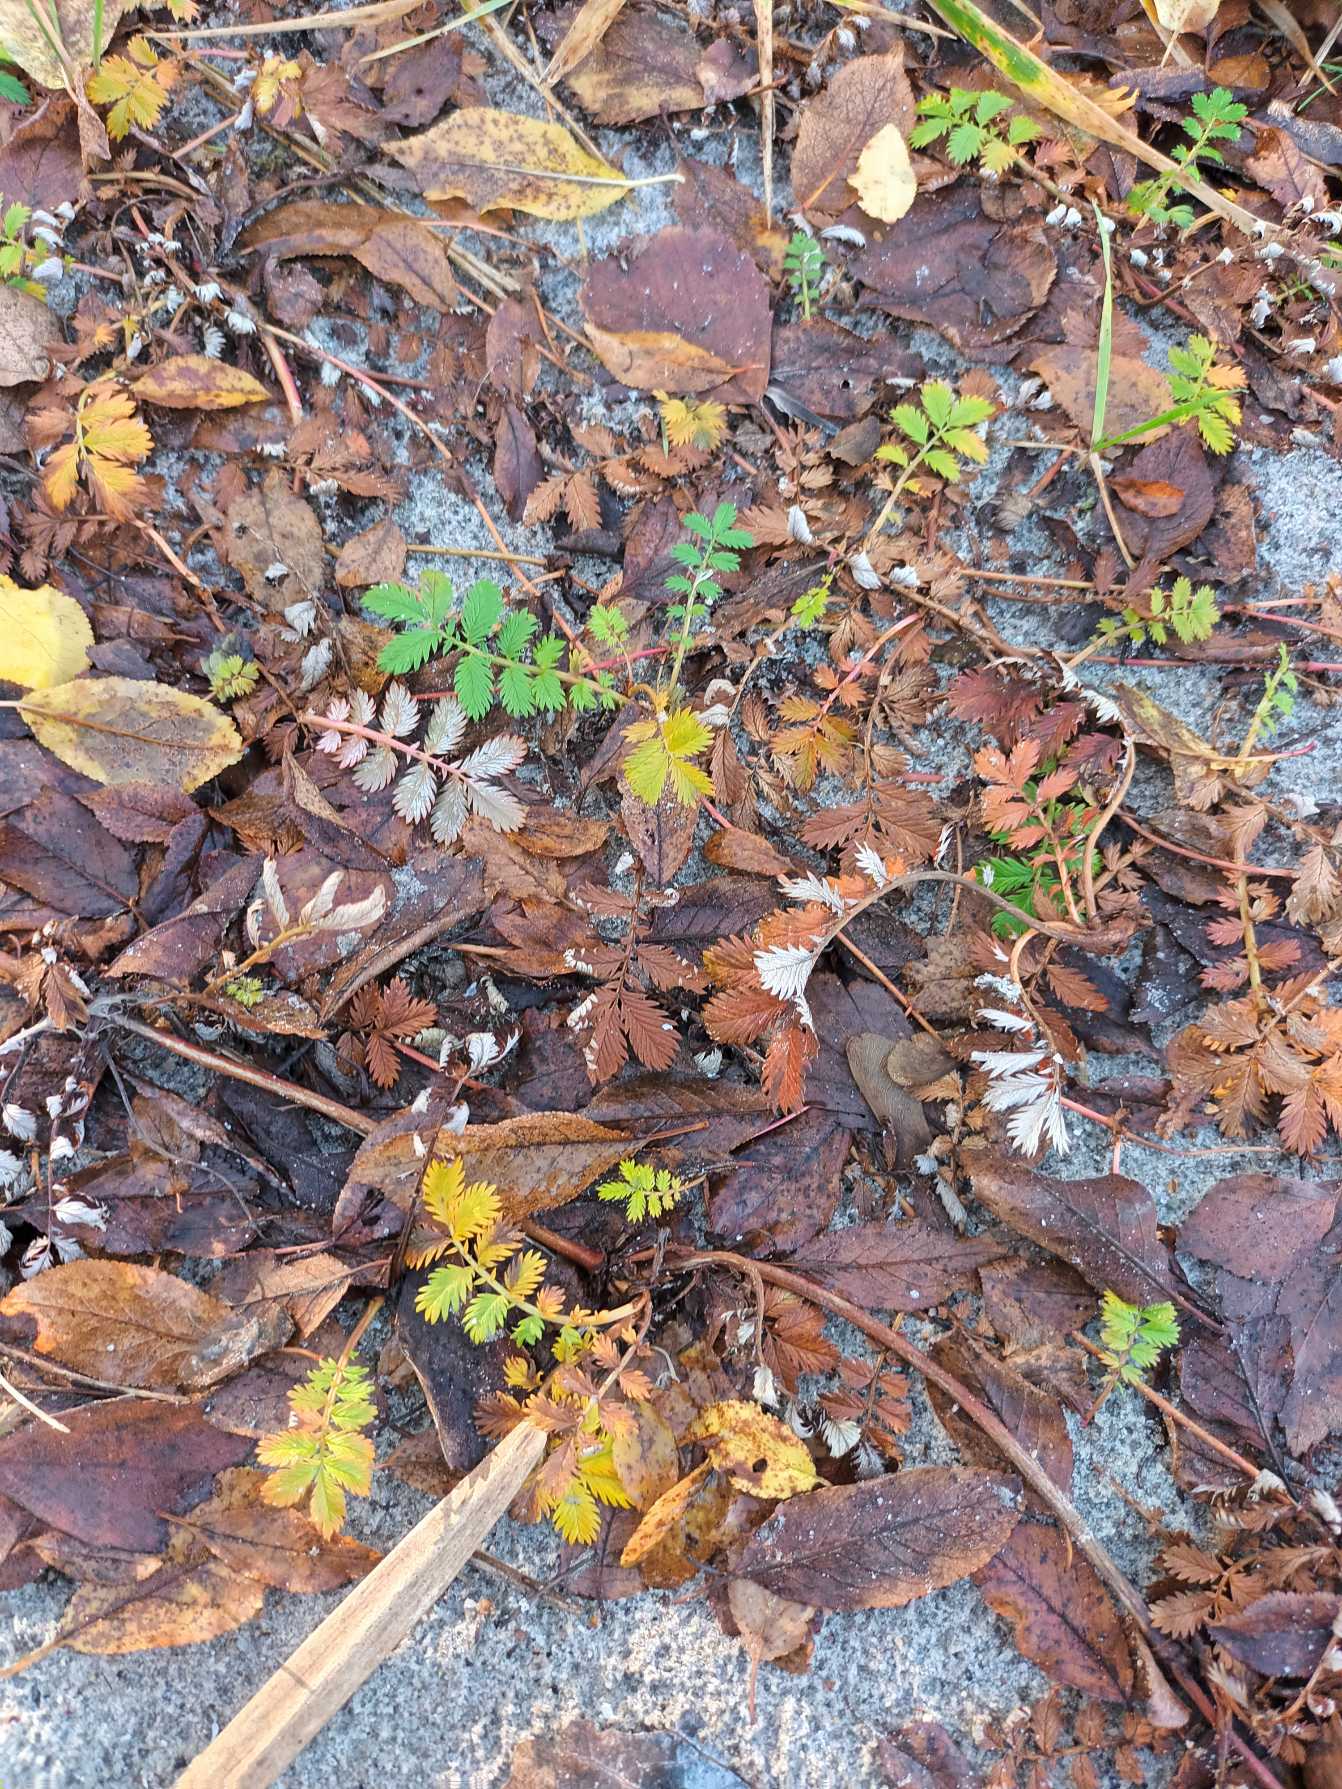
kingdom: Plantae
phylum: Tracheophyta
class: Magnoliopsida
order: Rosales
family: Rosaceae
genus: Argentina
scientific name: Argentina anserina
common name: Gåsepotentil
